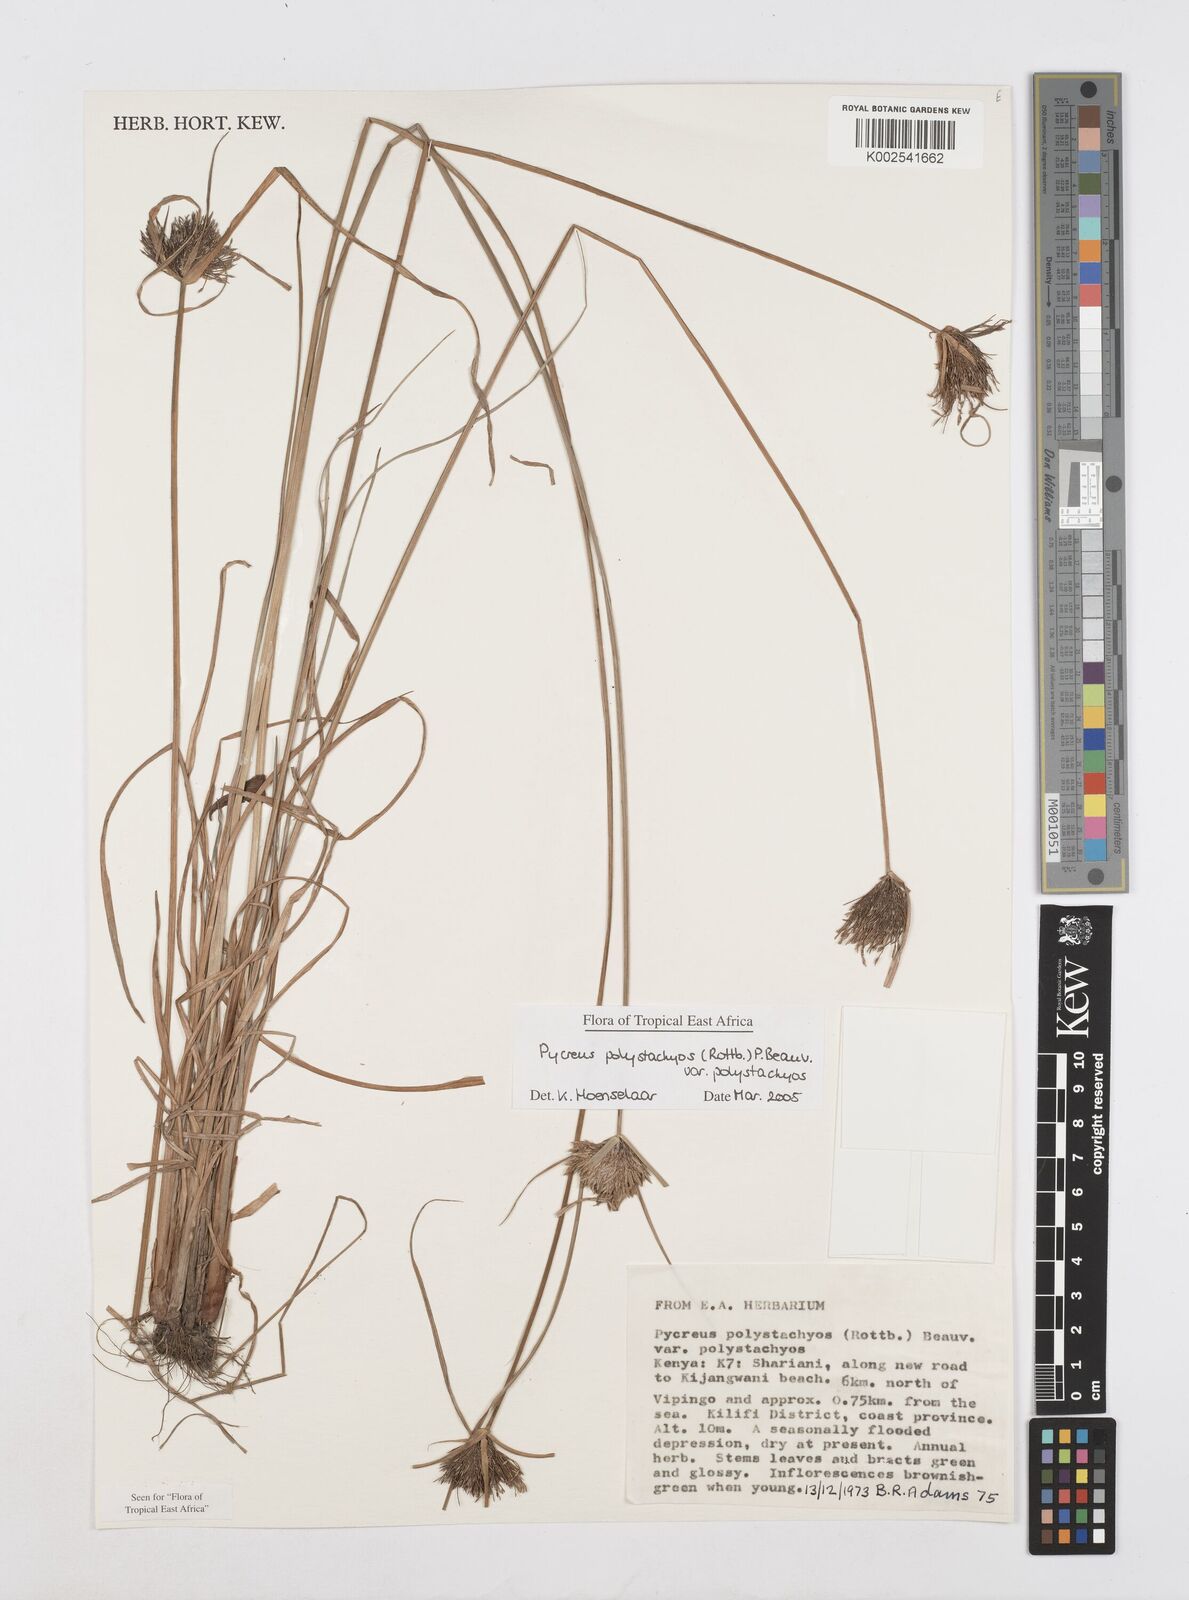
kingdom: Plantae
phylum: Tracheophyta
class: Liliopsida
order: Poales
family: Cyperaceae
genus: Cyperus
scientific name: Cyperus polystachyos
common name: Bunchy flat sedge
